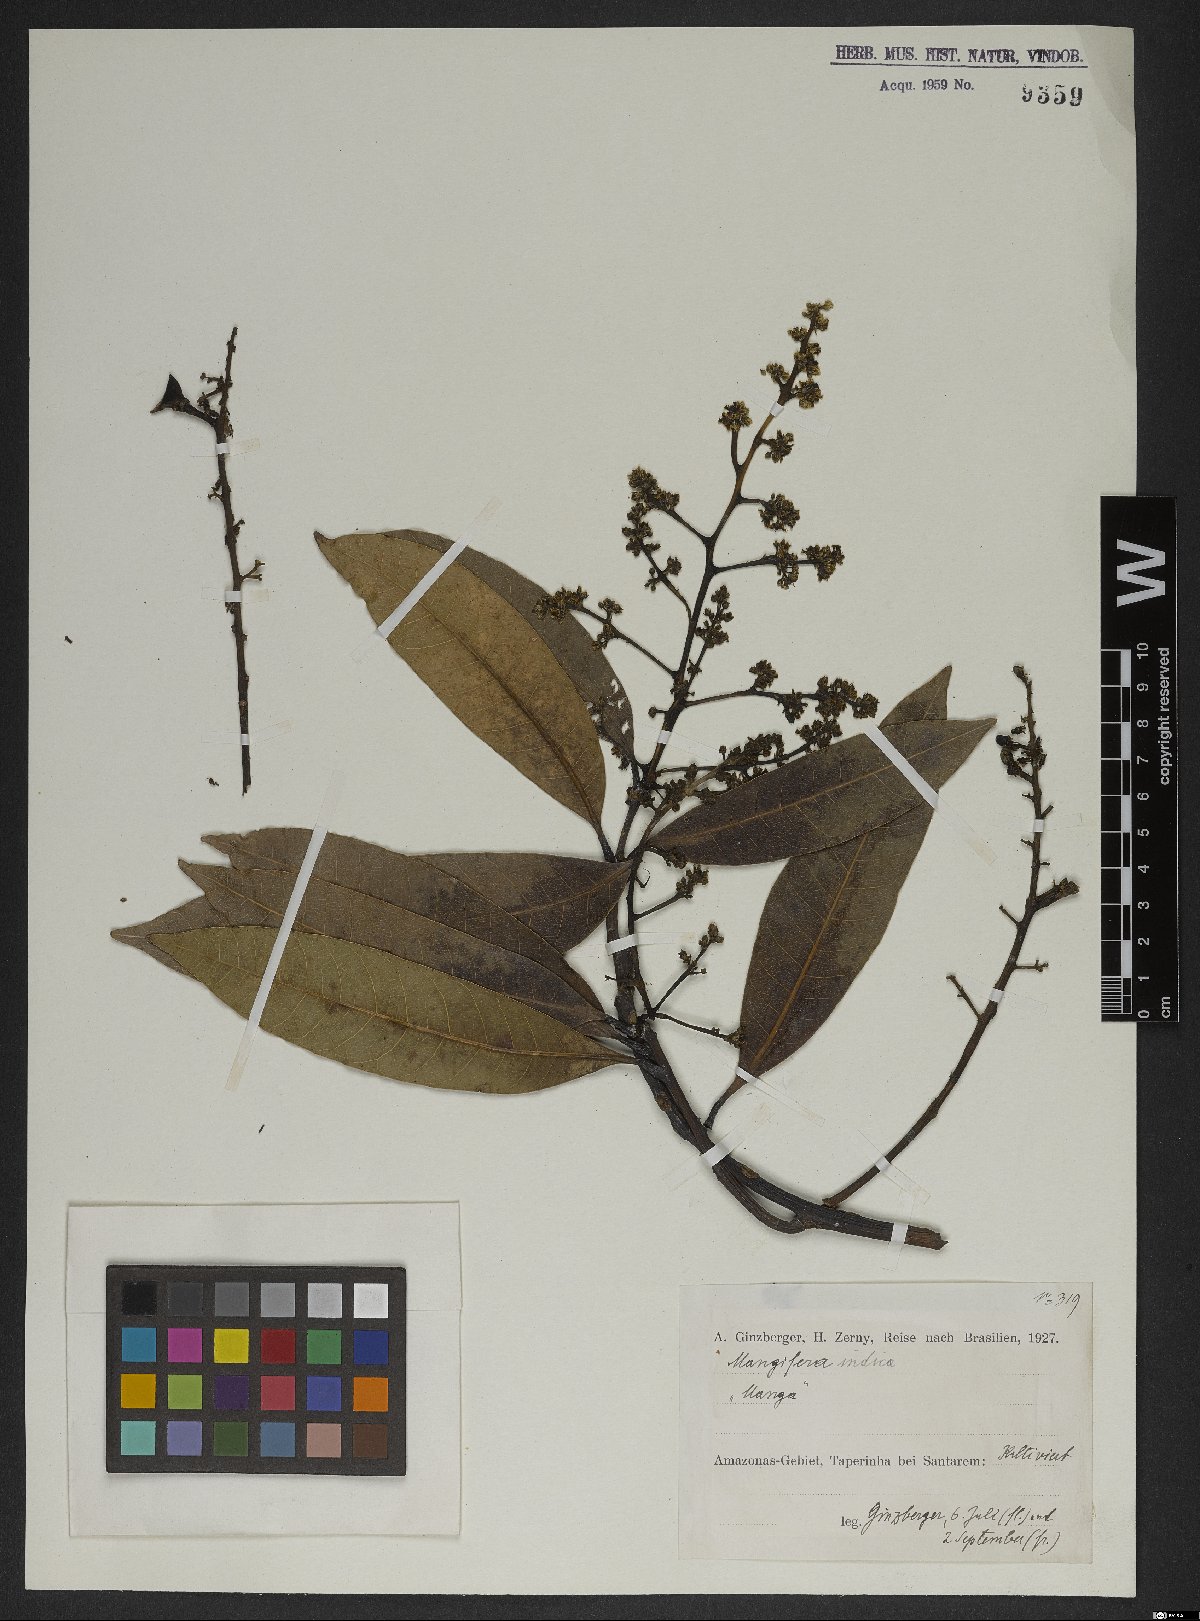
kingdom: Plantae
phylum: Tracheophyta
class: Magnoliopsida
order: Sapindales
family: Anacardiaceae
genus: Mangifera
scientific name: Mangifera indica
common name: Mango
